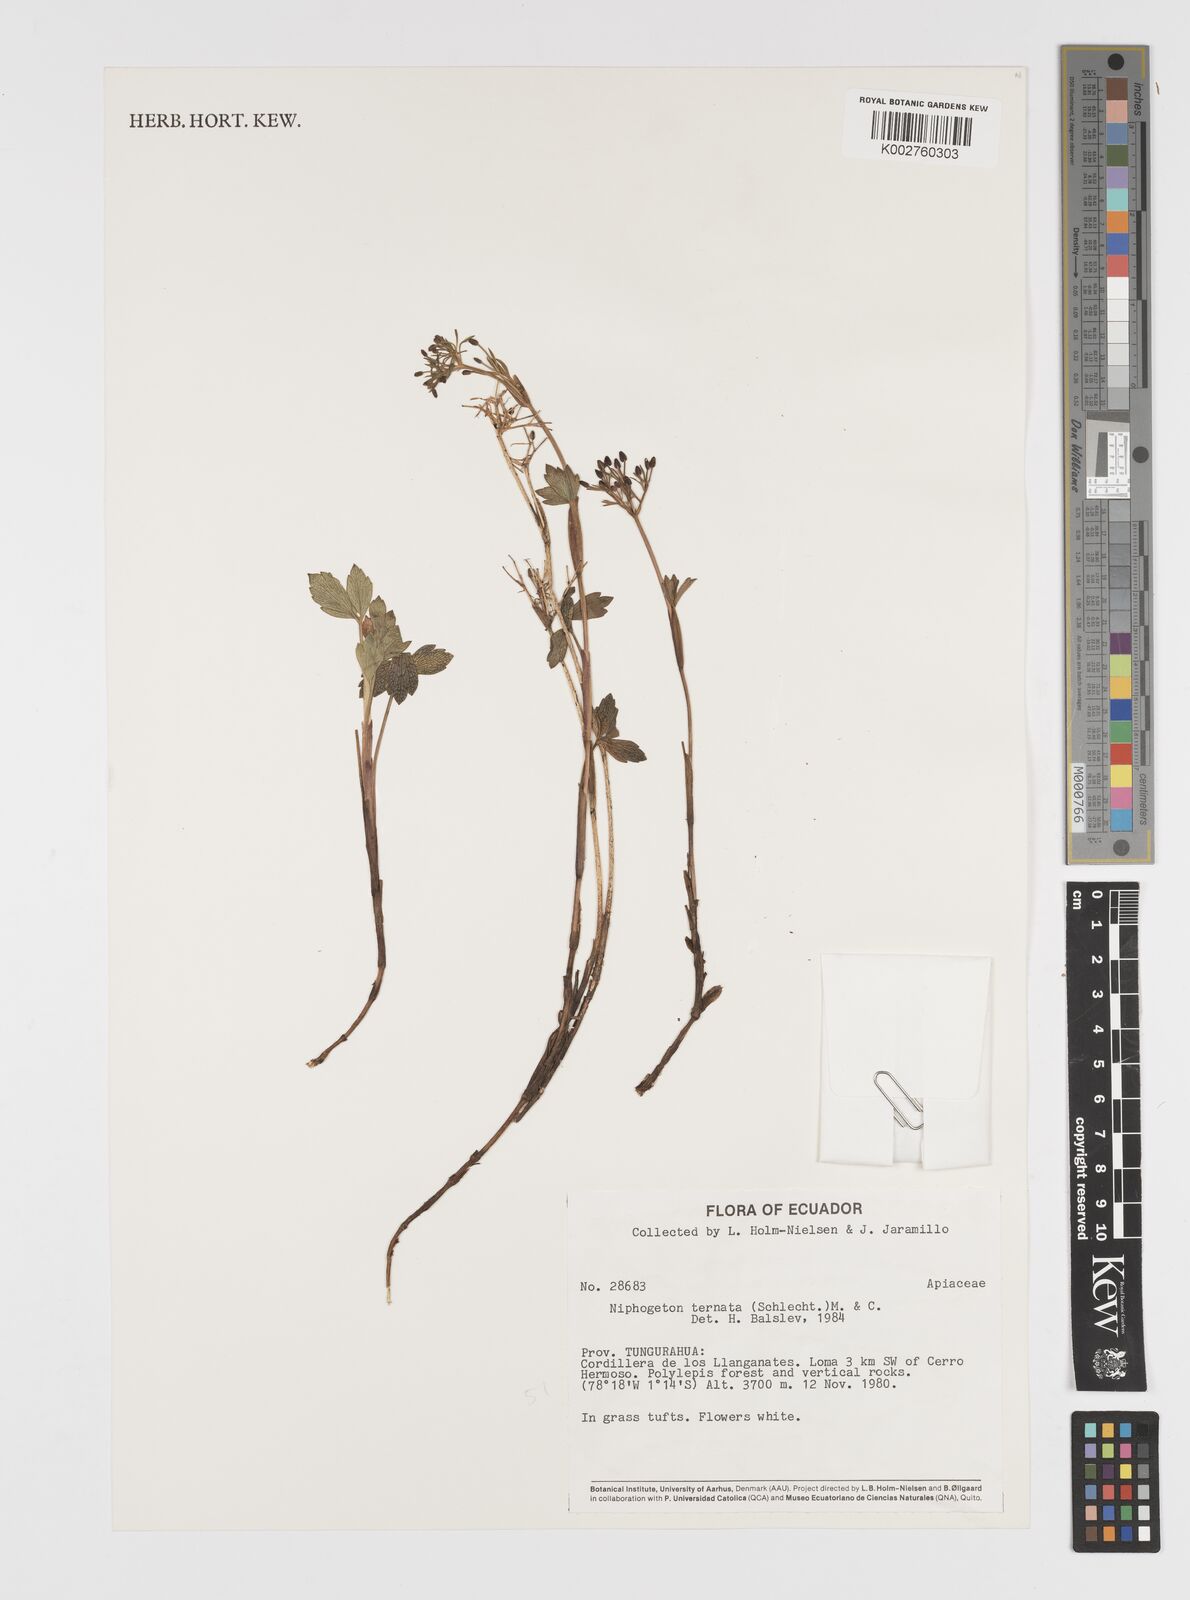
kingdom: Plantae
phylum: Tracheophyta
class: Magnoliopsida
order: Apiales
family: Apiaceae
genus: Niphogeton
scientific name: Niphogeton ternata
